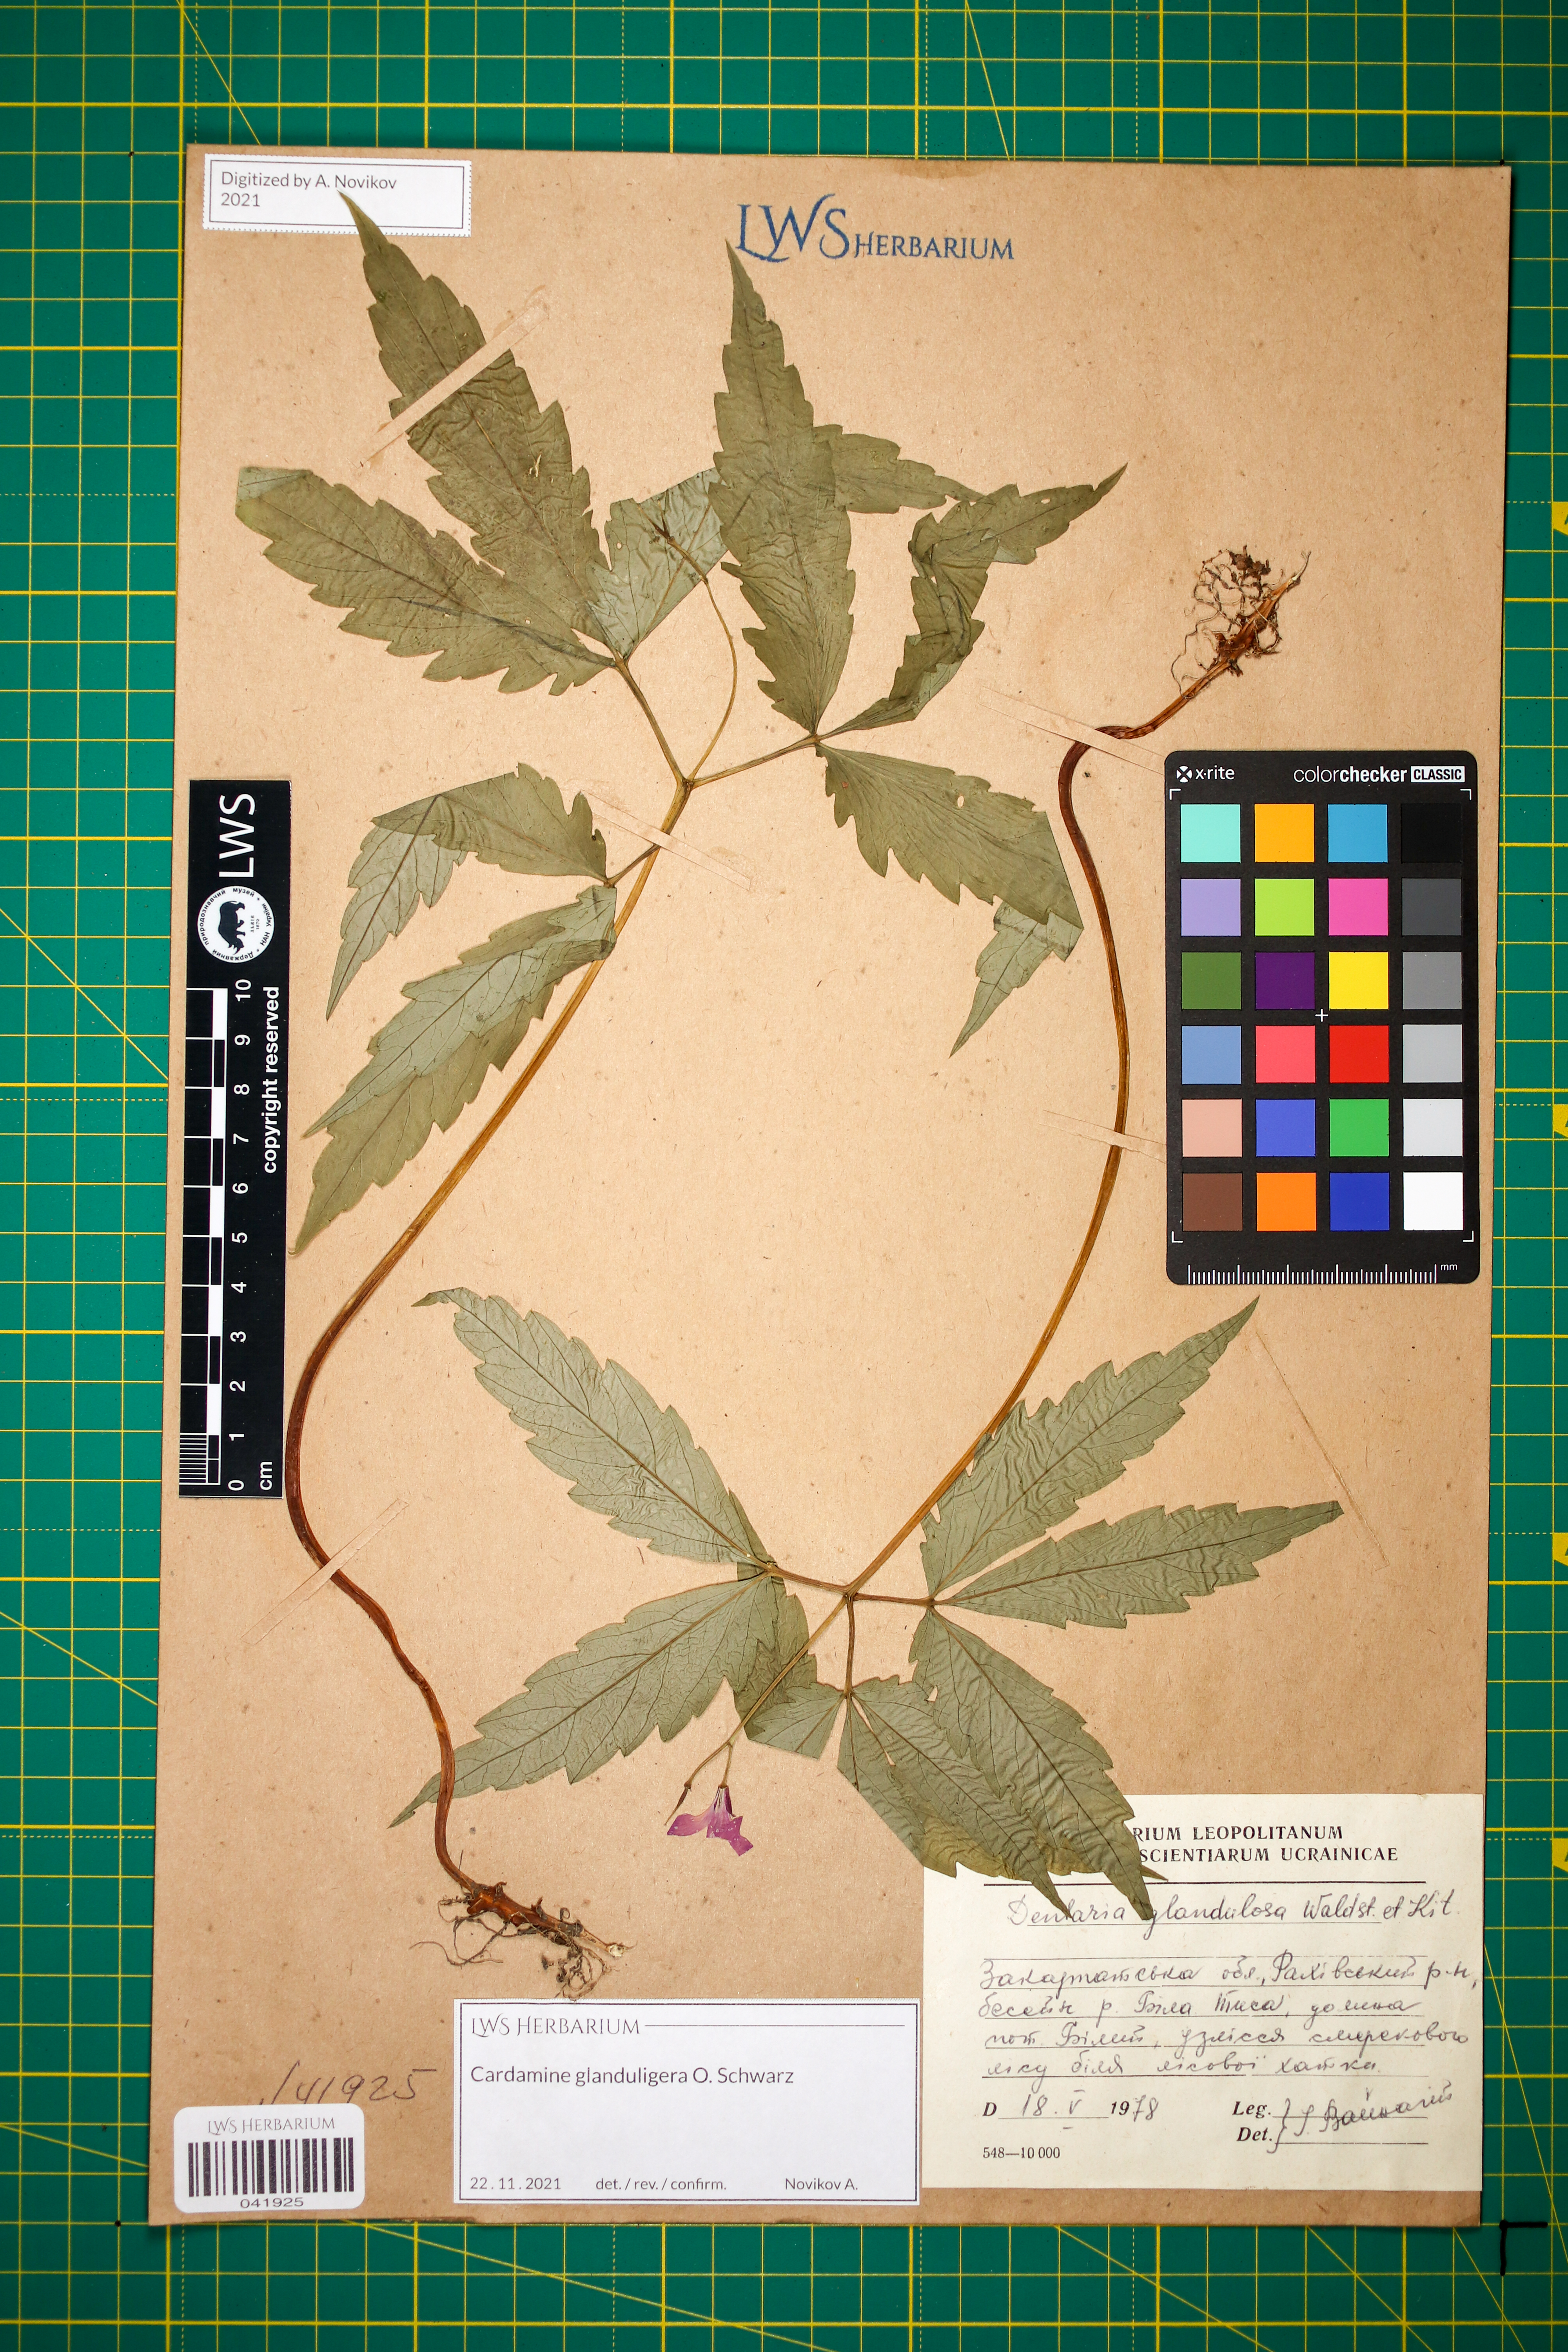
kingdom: Plantae
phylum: Tracheophyta
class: Magnoliopsida
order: Brassicales
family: Brassicaceae
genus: Cardamine
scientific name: Cardamine glanduligera
